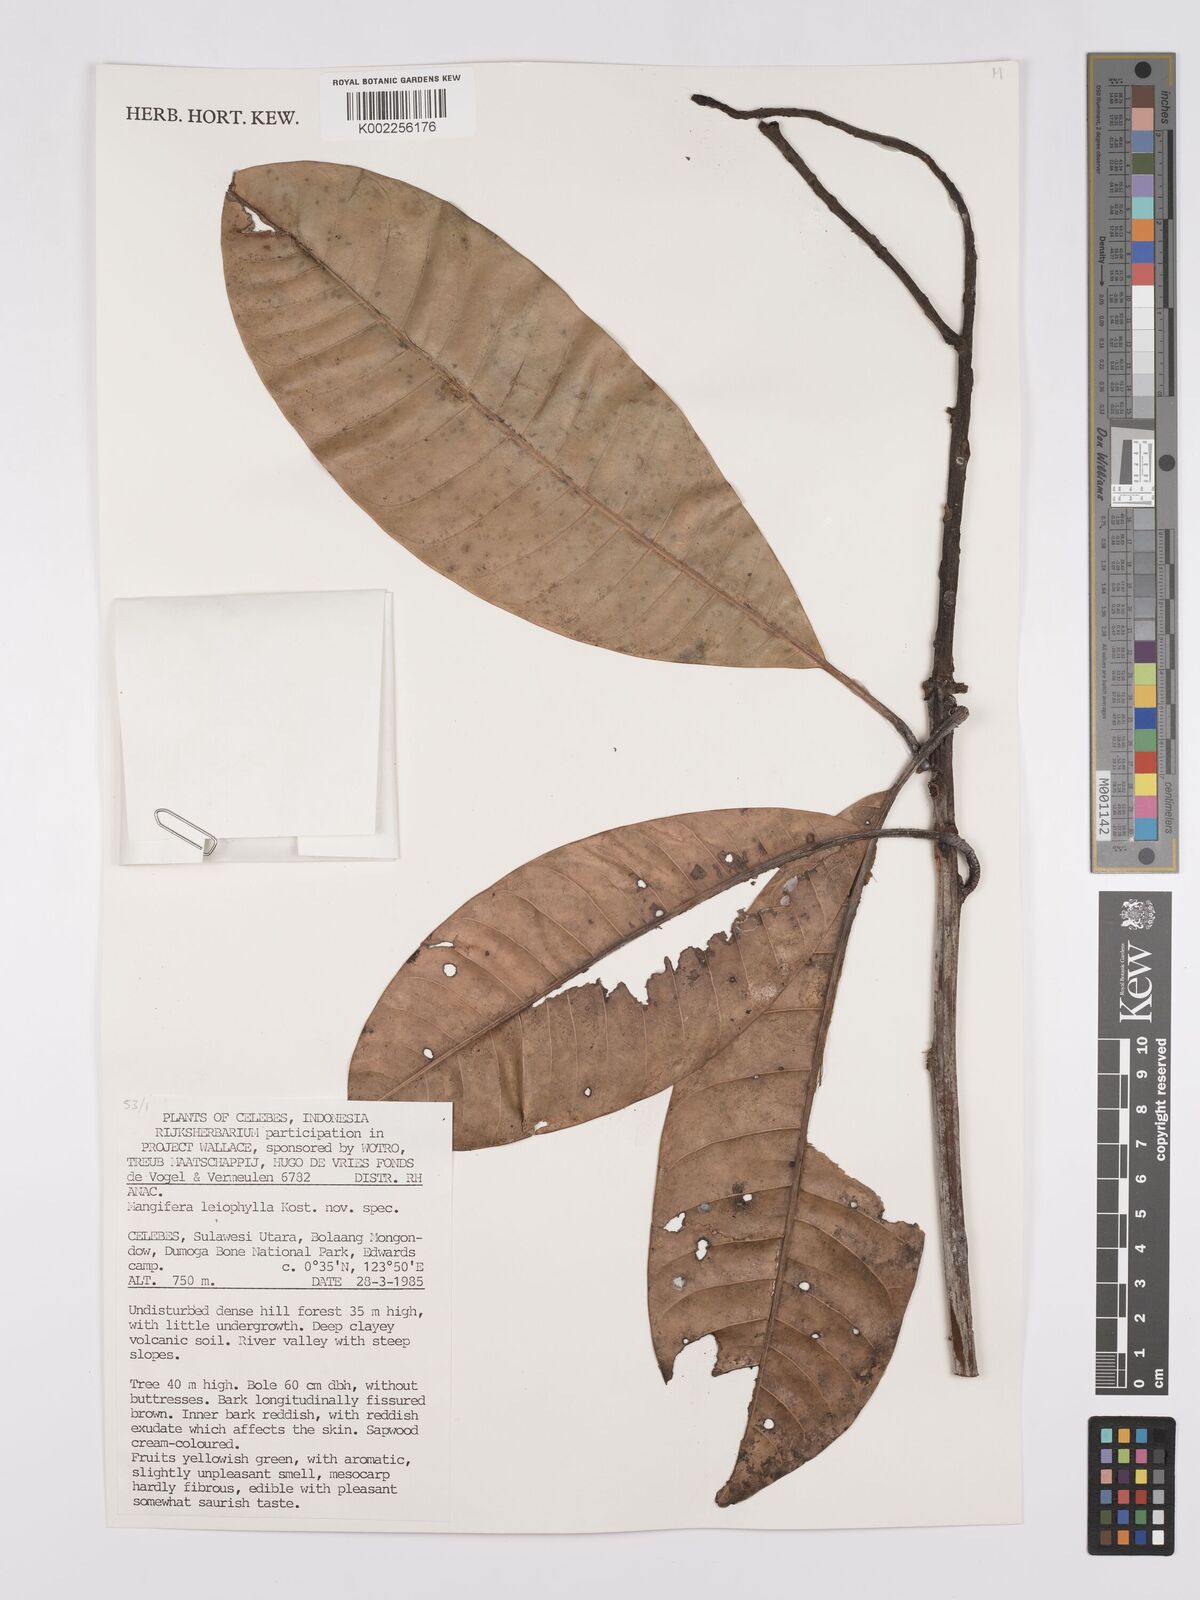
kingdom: Plantae
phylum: Tracheophyta
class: Magnoliopsida
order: Sapindales
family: Anacardiaceae
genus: Mangifera
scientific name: Mangifera
